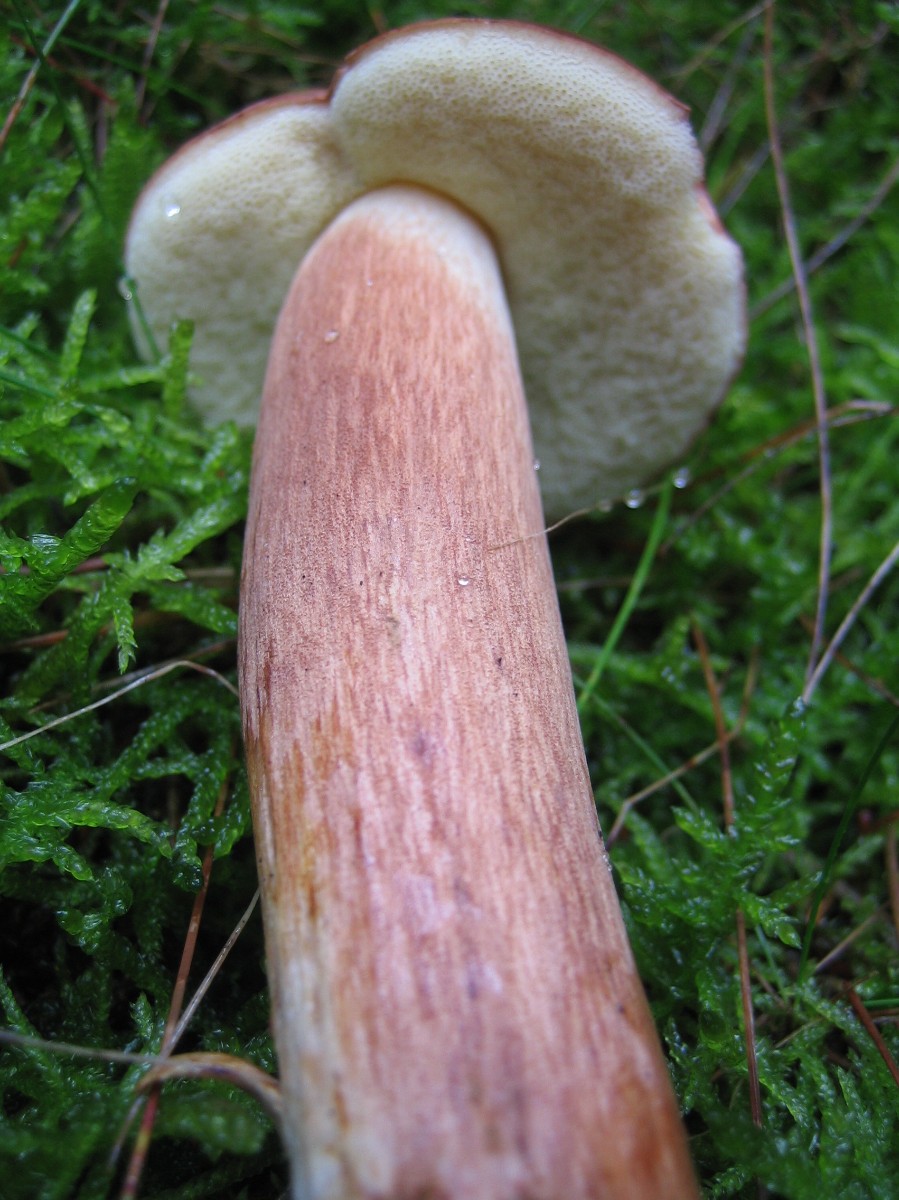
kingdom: Fungi
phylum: Basidiomycota
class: Agaricomycetes
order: Boletales
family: Boletaceae
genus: Imleria
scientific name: Imleria badia
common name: brunstokket rørhat
